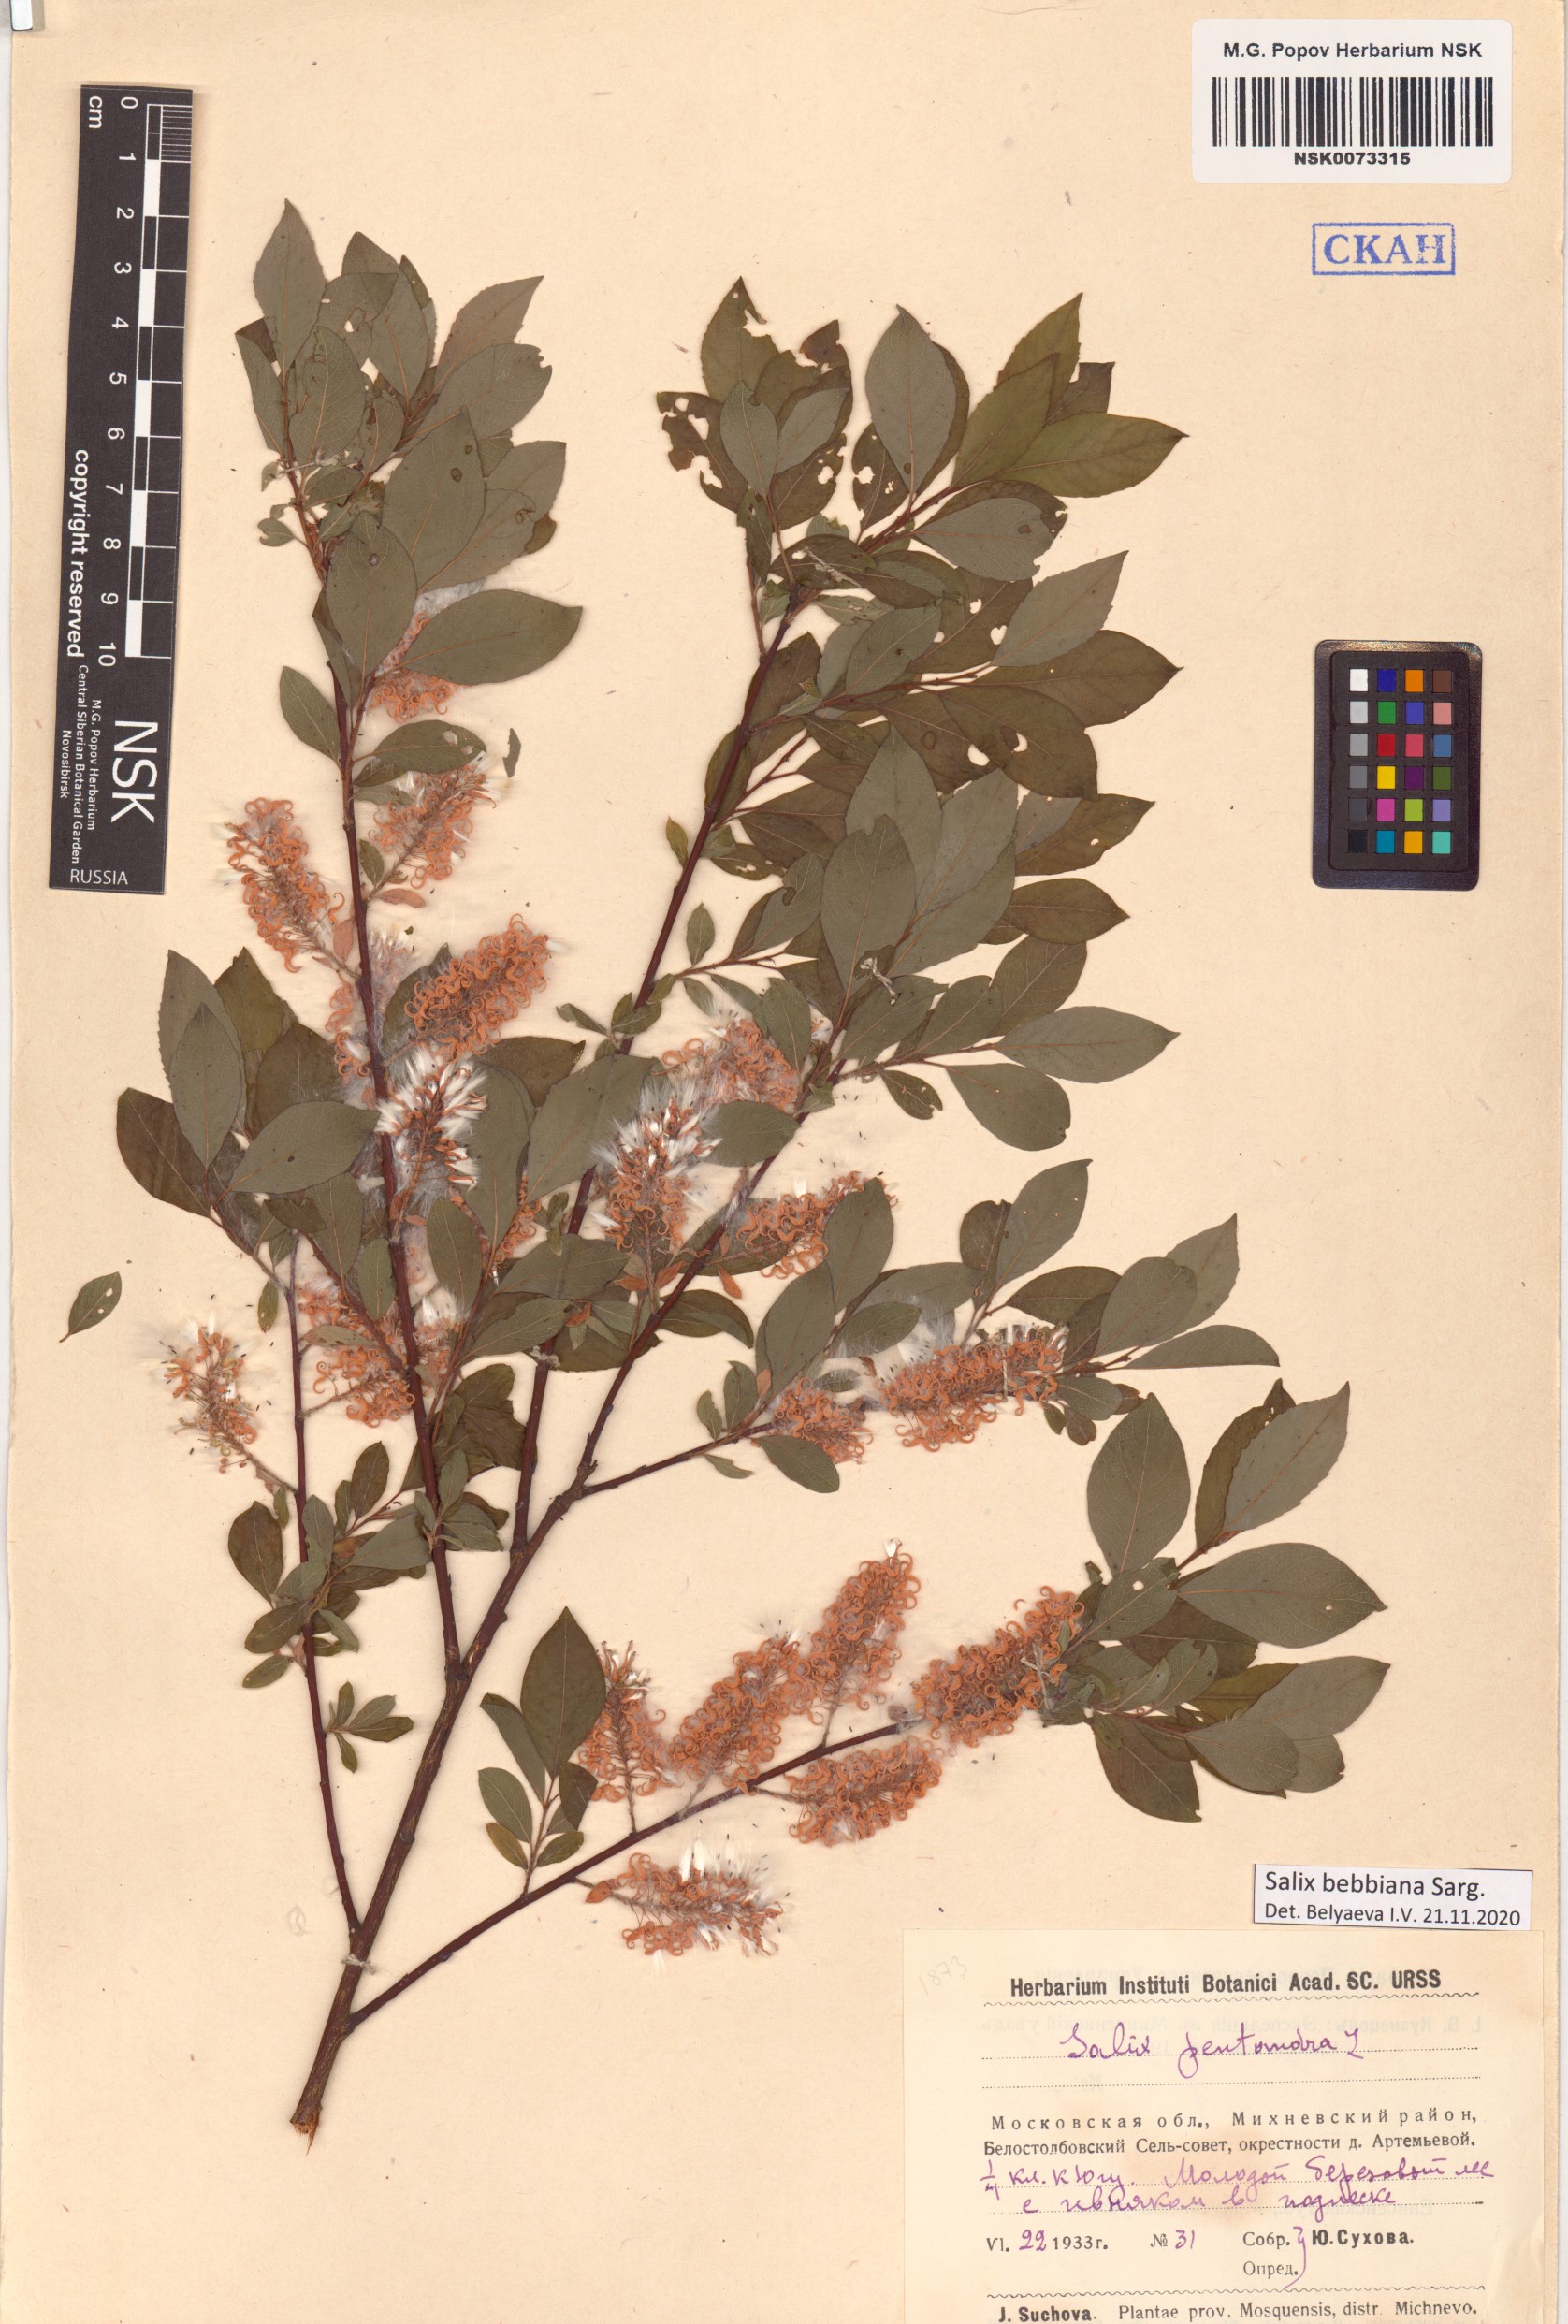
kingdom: Plantae
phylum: Tracheophyta
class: Magnoliopsida
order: Malpighiales
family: Salicaceae
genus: Salix
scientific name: Salix bebbiana
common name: Bebb's willow
